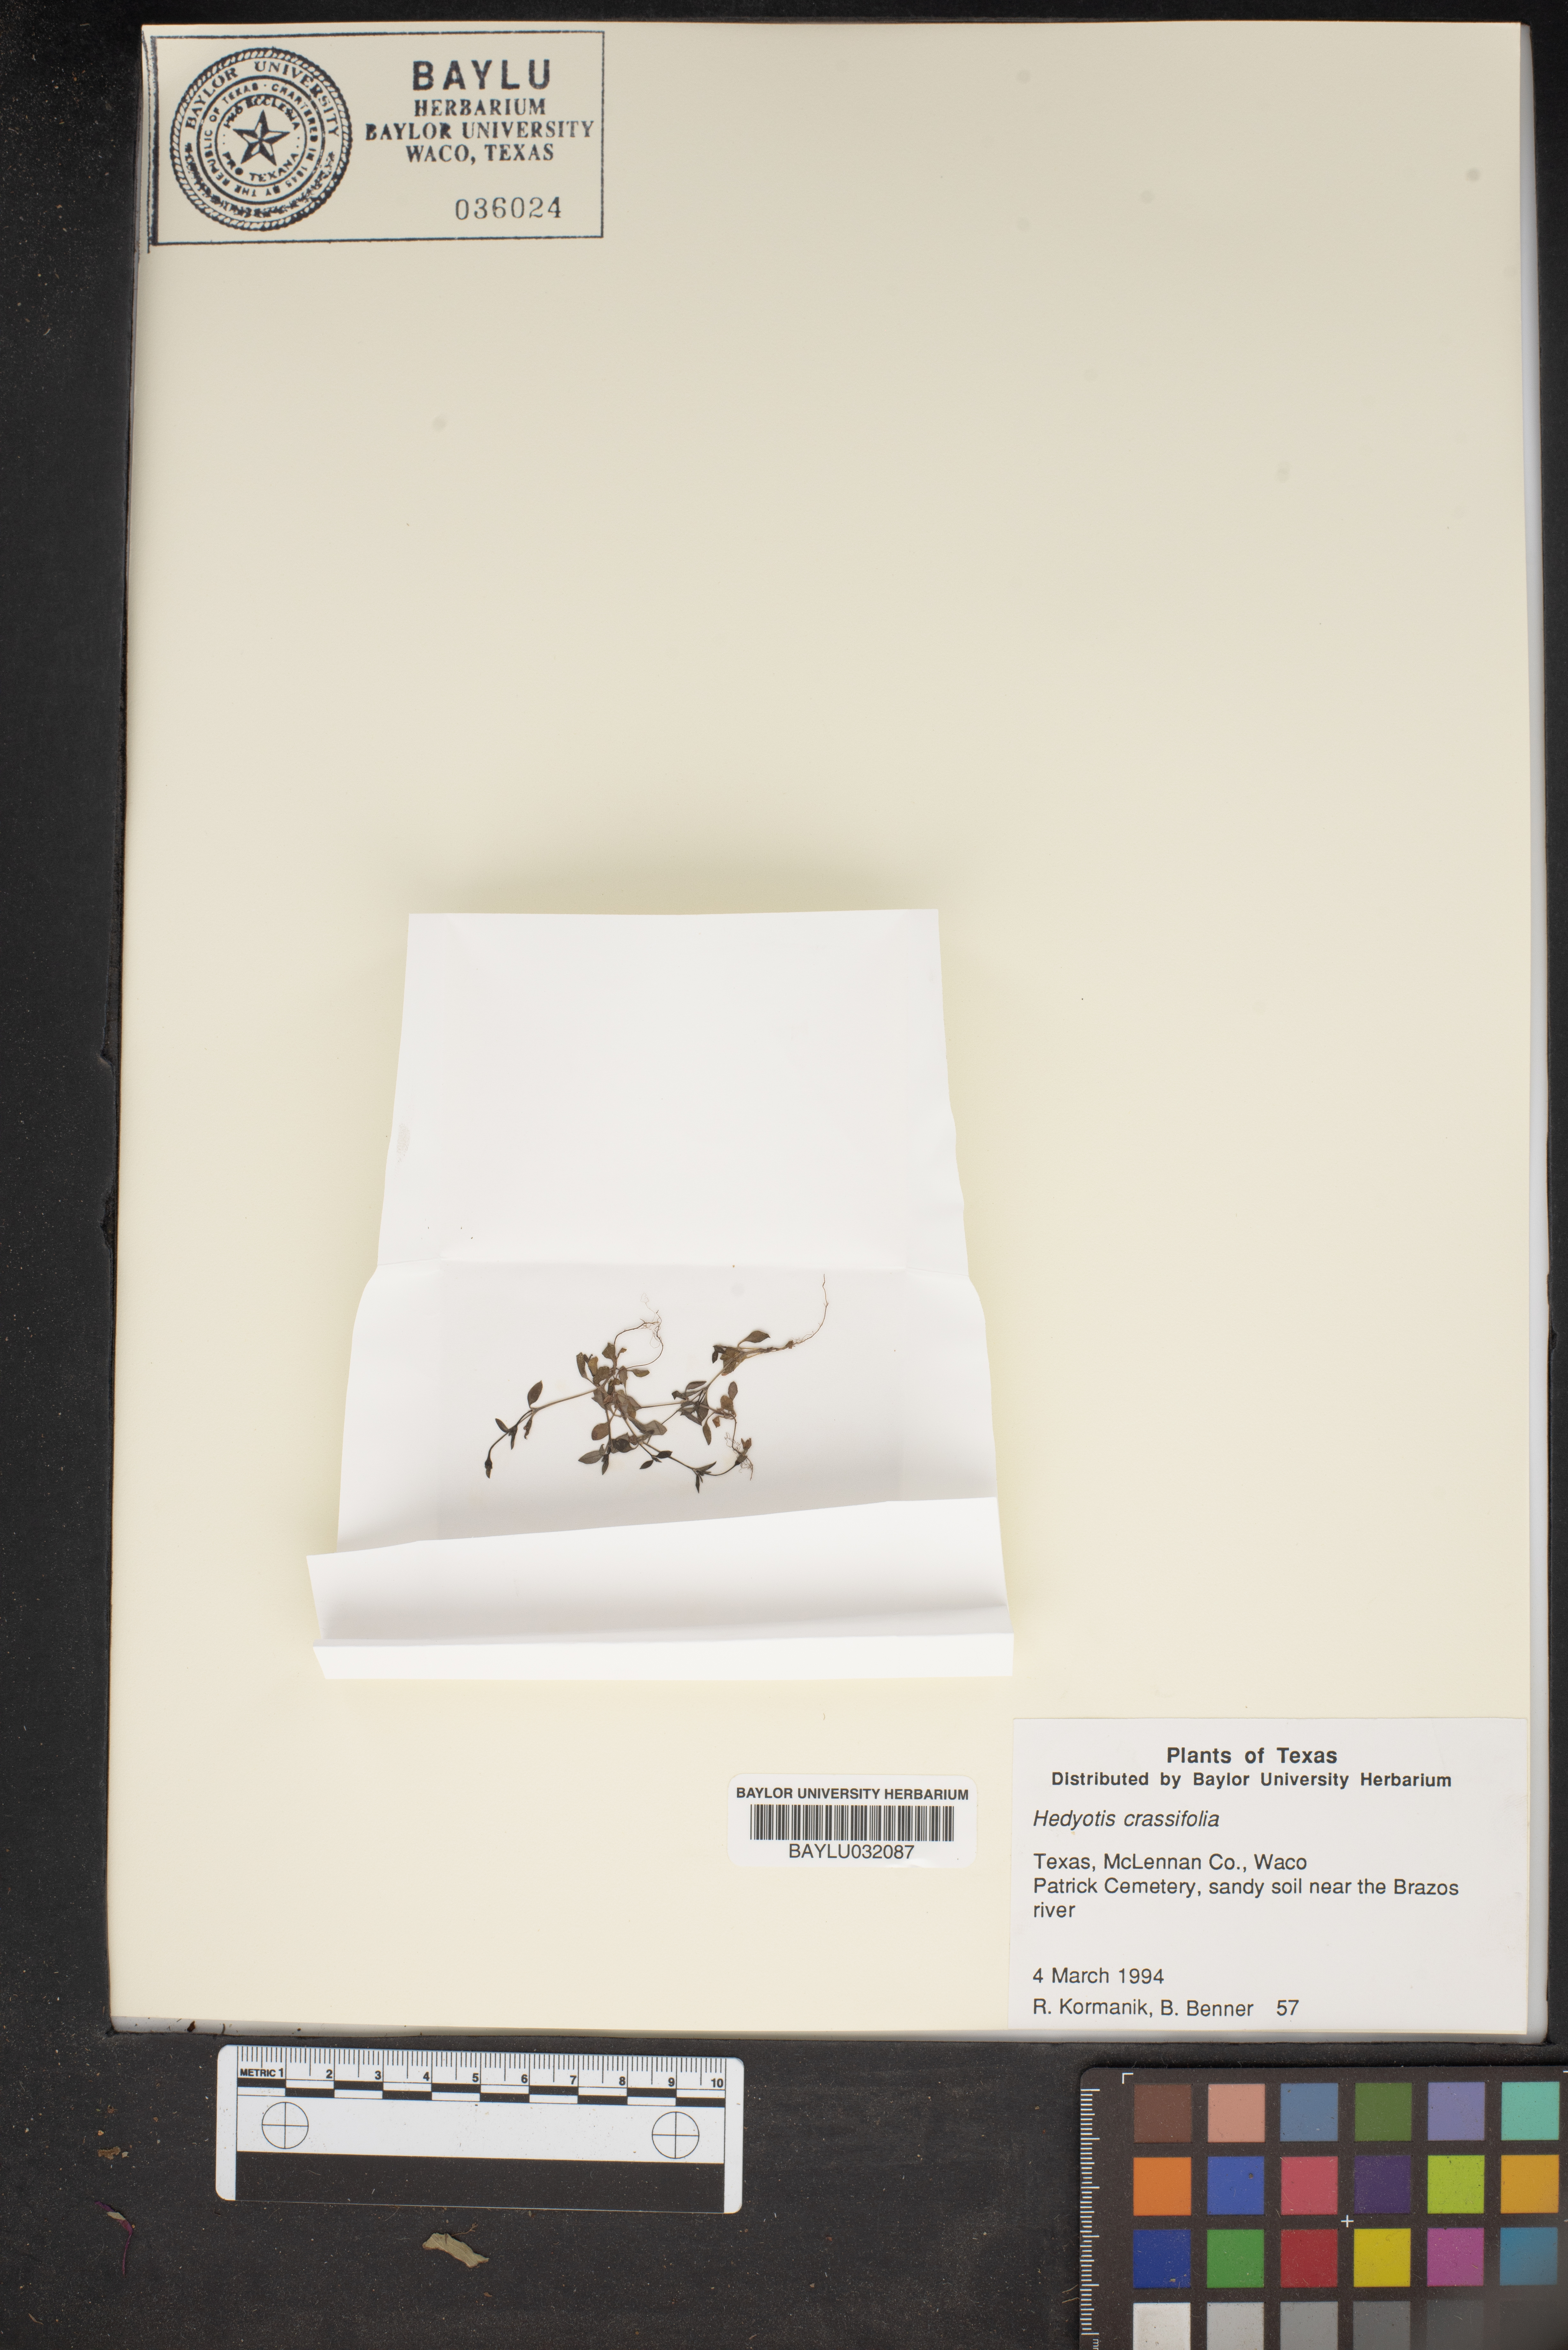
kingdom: Plantae
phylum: Tracheophyta
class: Magnoliopsida
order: Gentianales
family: Rubiaceae
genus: Houstonia
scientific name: Houstonia pusilla
